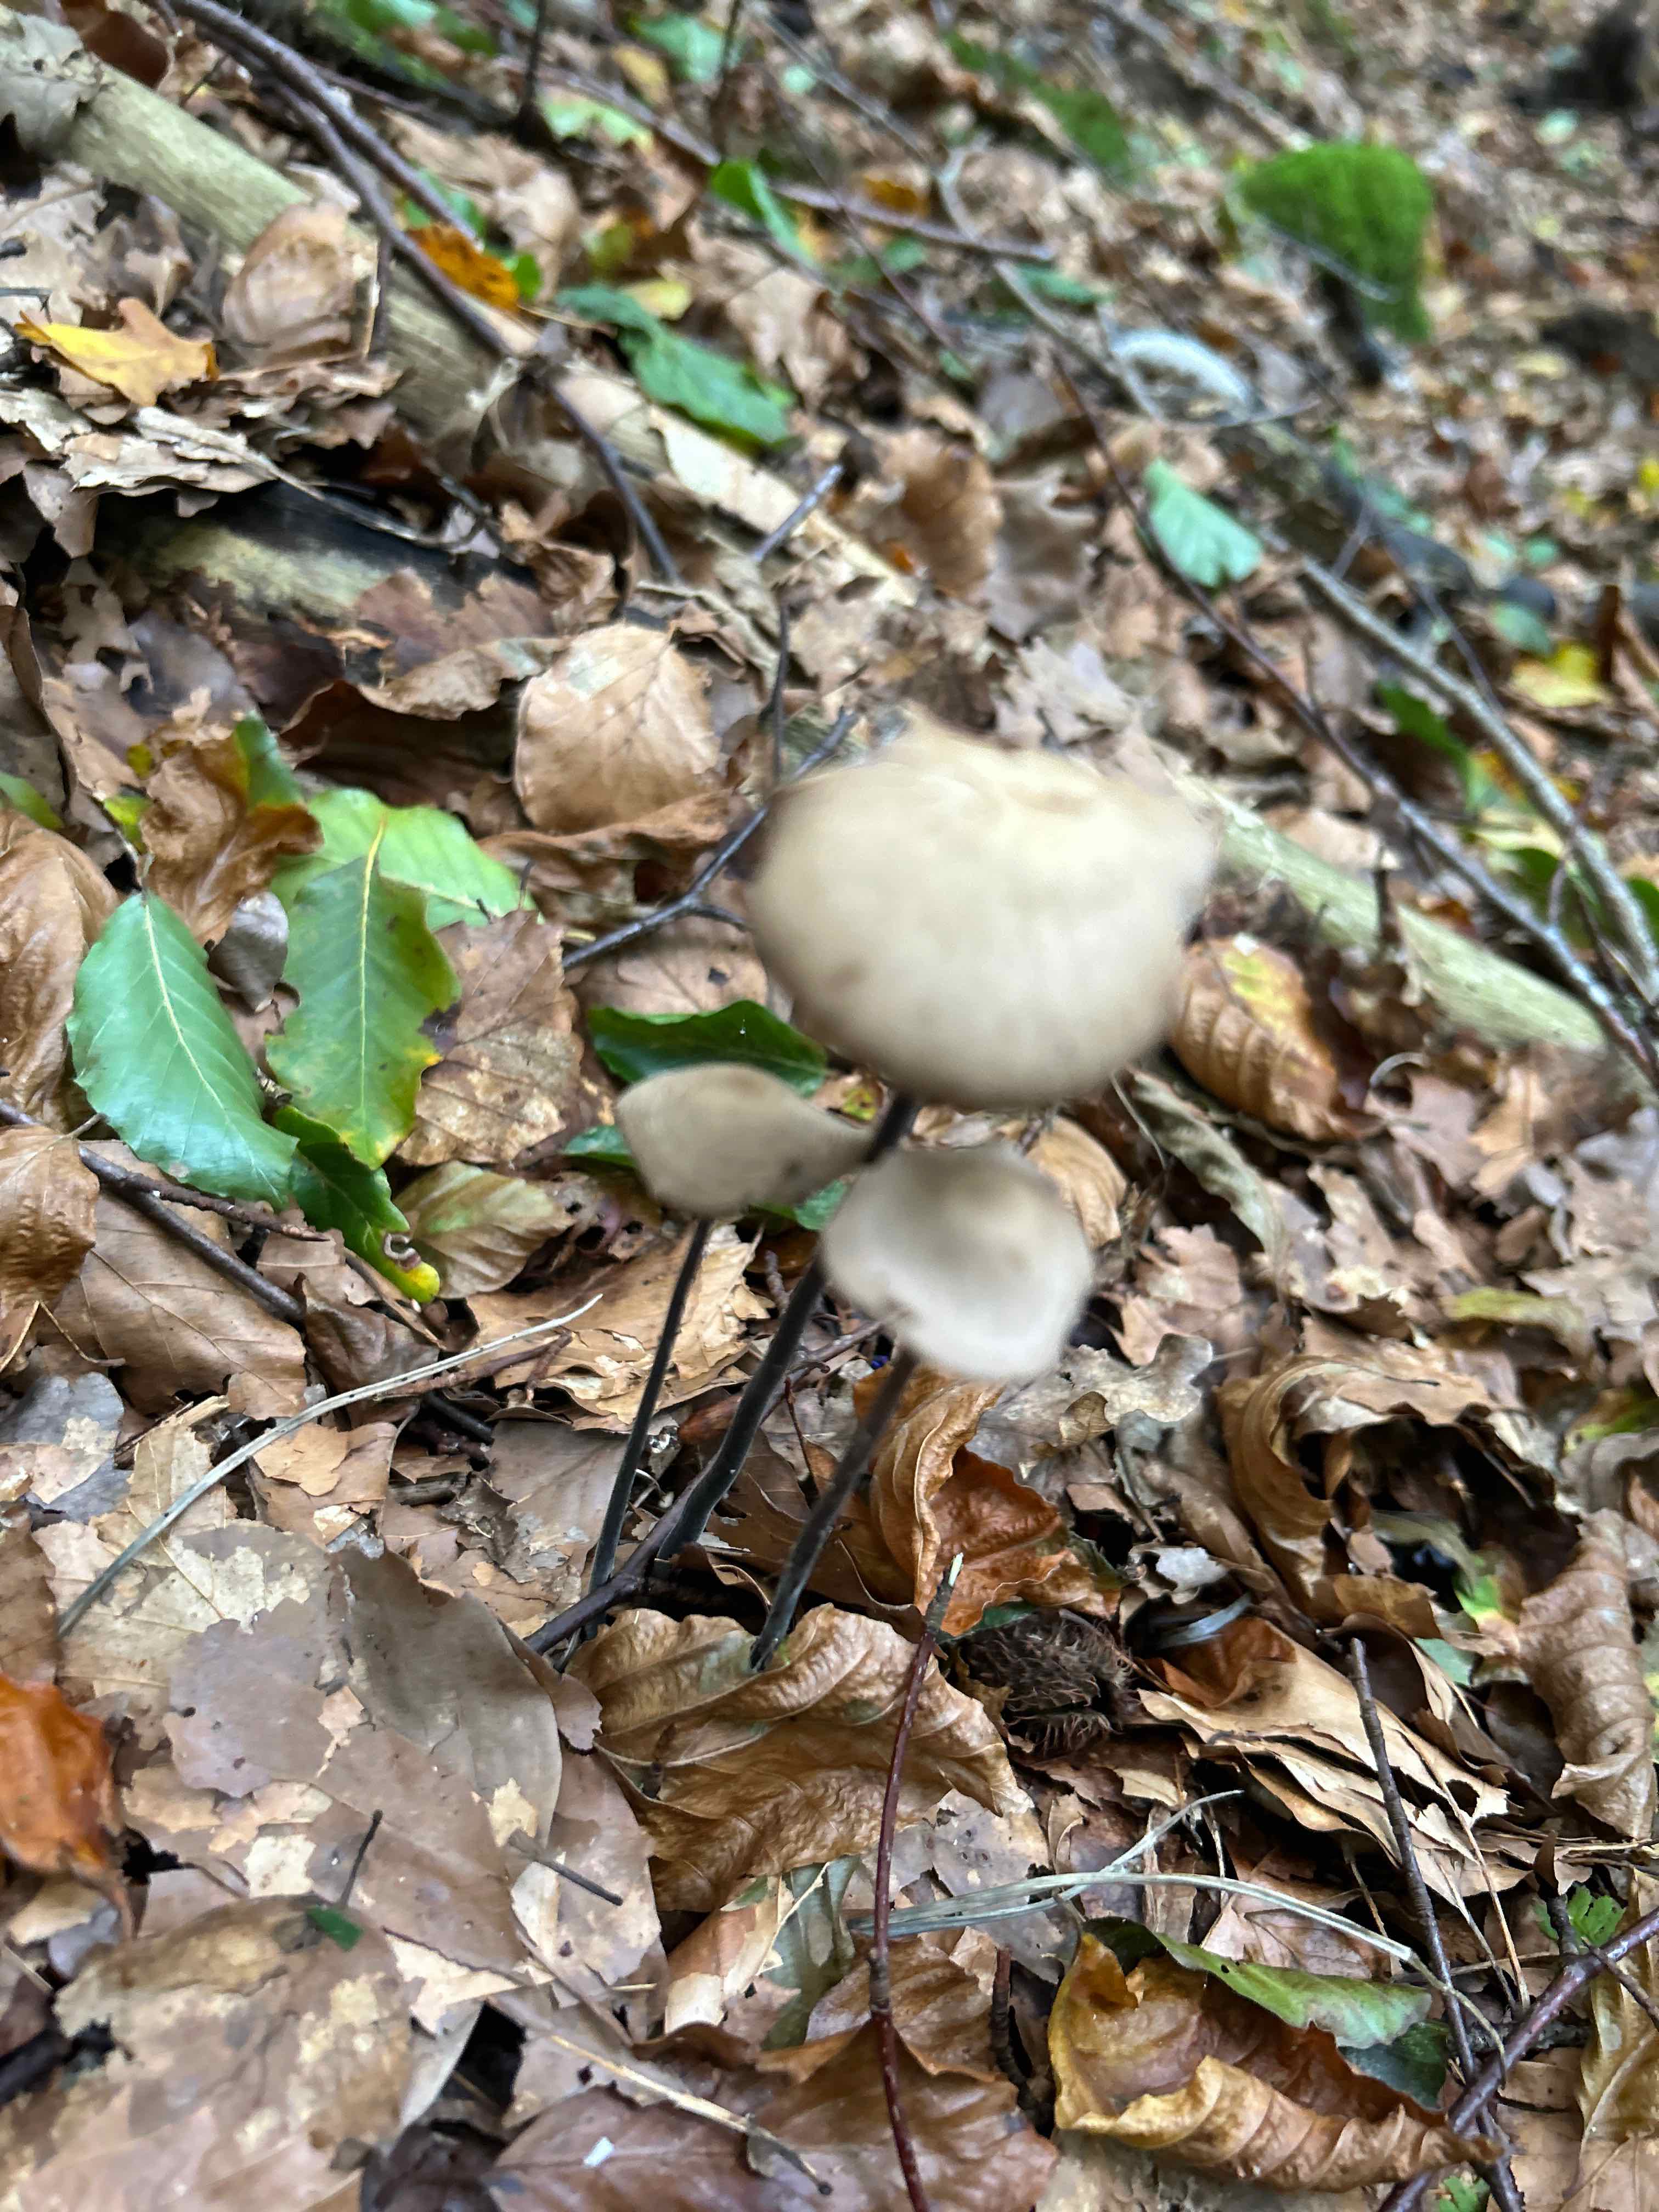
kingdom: Fungi
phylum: Basidiomycota
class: Agaricomycetes
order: Agaricales
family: Omphalotaceae
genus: Mycetinis
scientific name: Mycetinis alliaceus
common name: stor løghat
